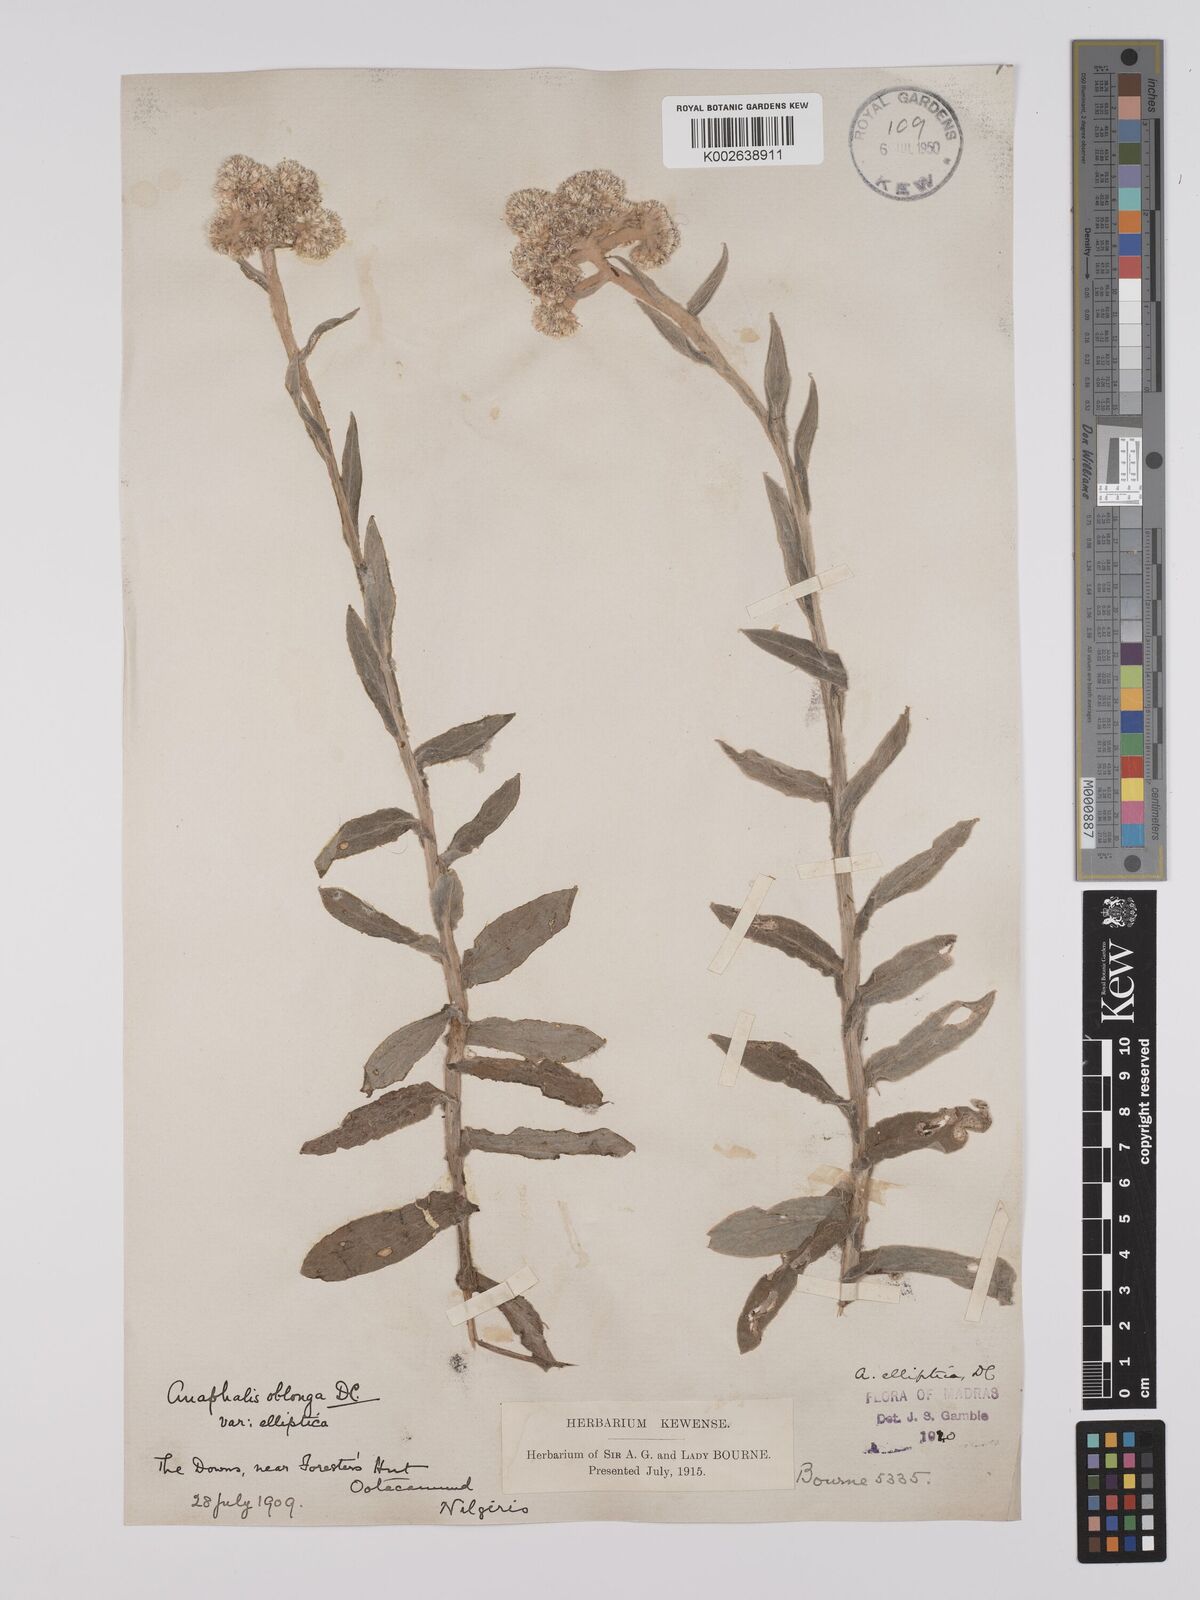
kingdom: Plantae
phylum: Tracheophyta
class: Magnoliopsida
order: Asterales
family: Asteraceae
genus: Anaphalis
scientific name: Anaphalis elliptica
